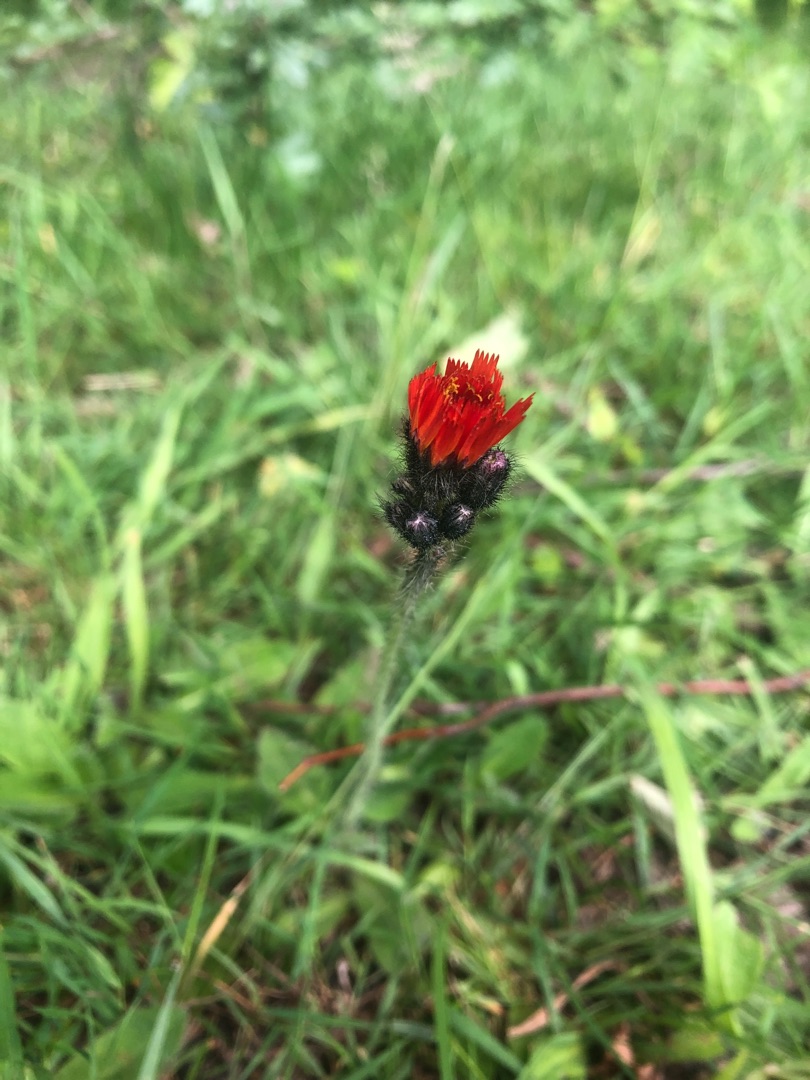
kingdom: Plantae
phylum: Tracheophyta
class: Magnoliopsida
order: Asterales
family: Asteraceae
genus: Pilosella
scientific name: Pilosella aurantiaca
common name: Pomerans-høgeurt
